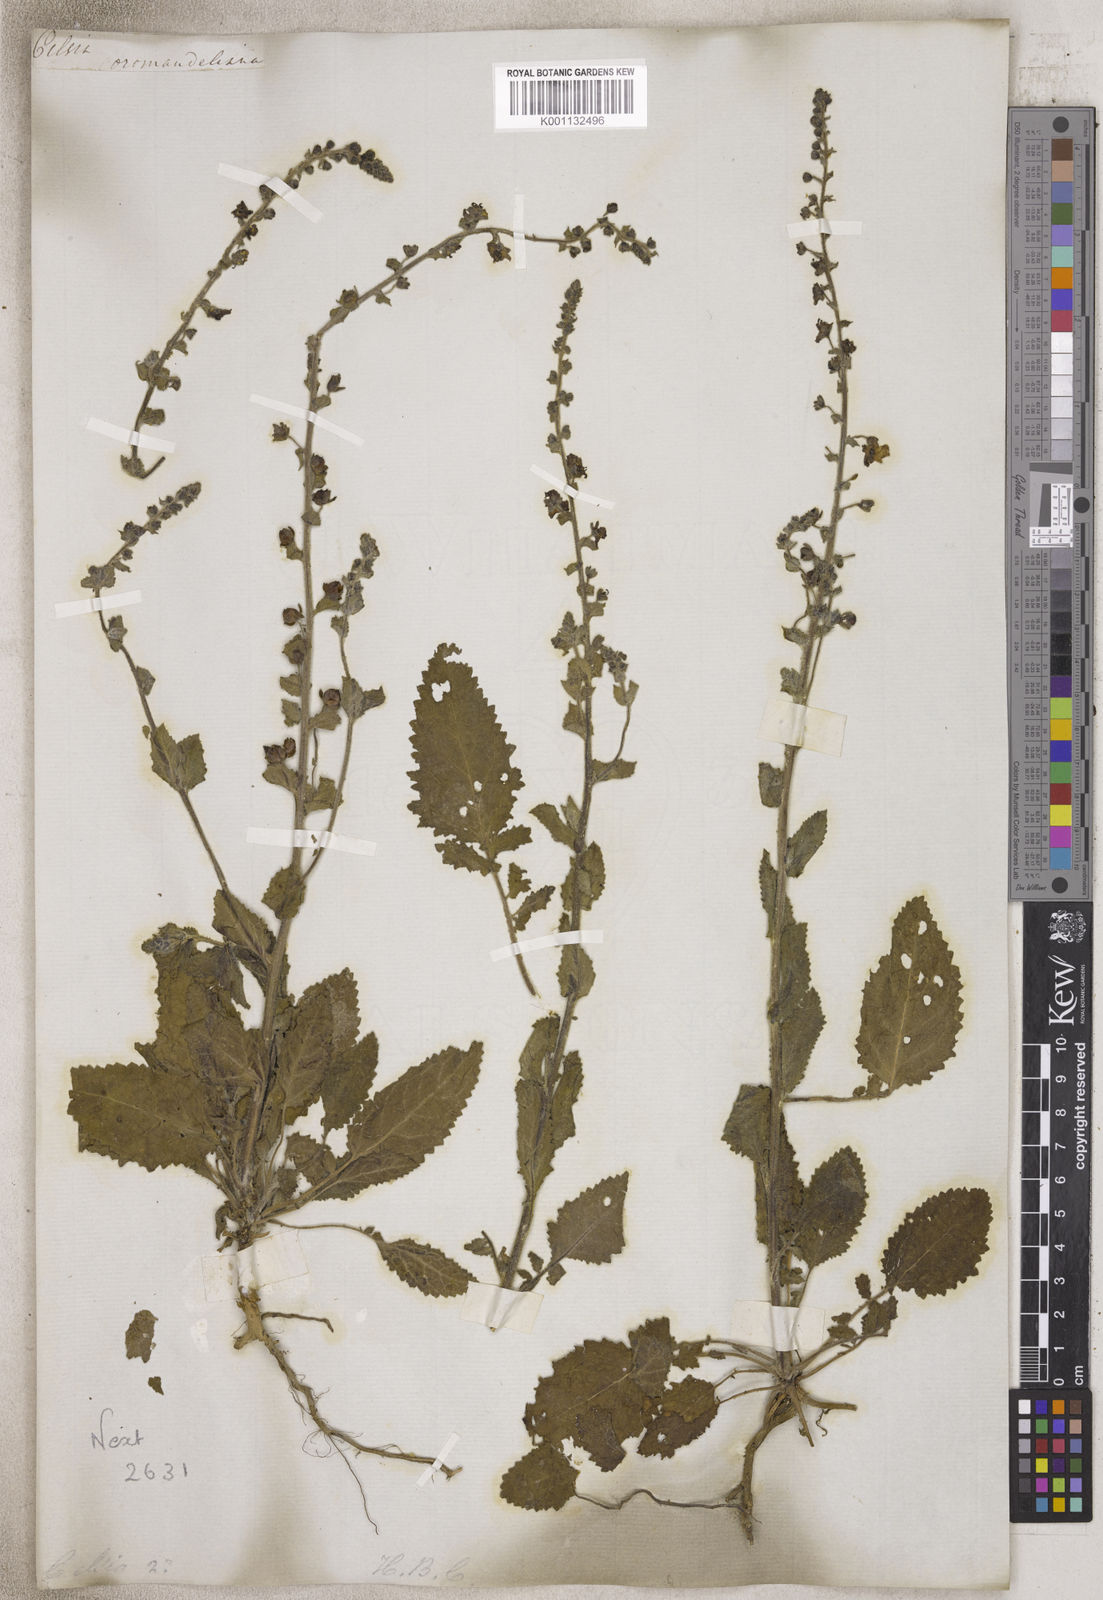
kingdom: Animalia
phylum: Arthropoda
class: Insecta
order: Lepidoptera
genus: Celsia
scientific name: Celsia
